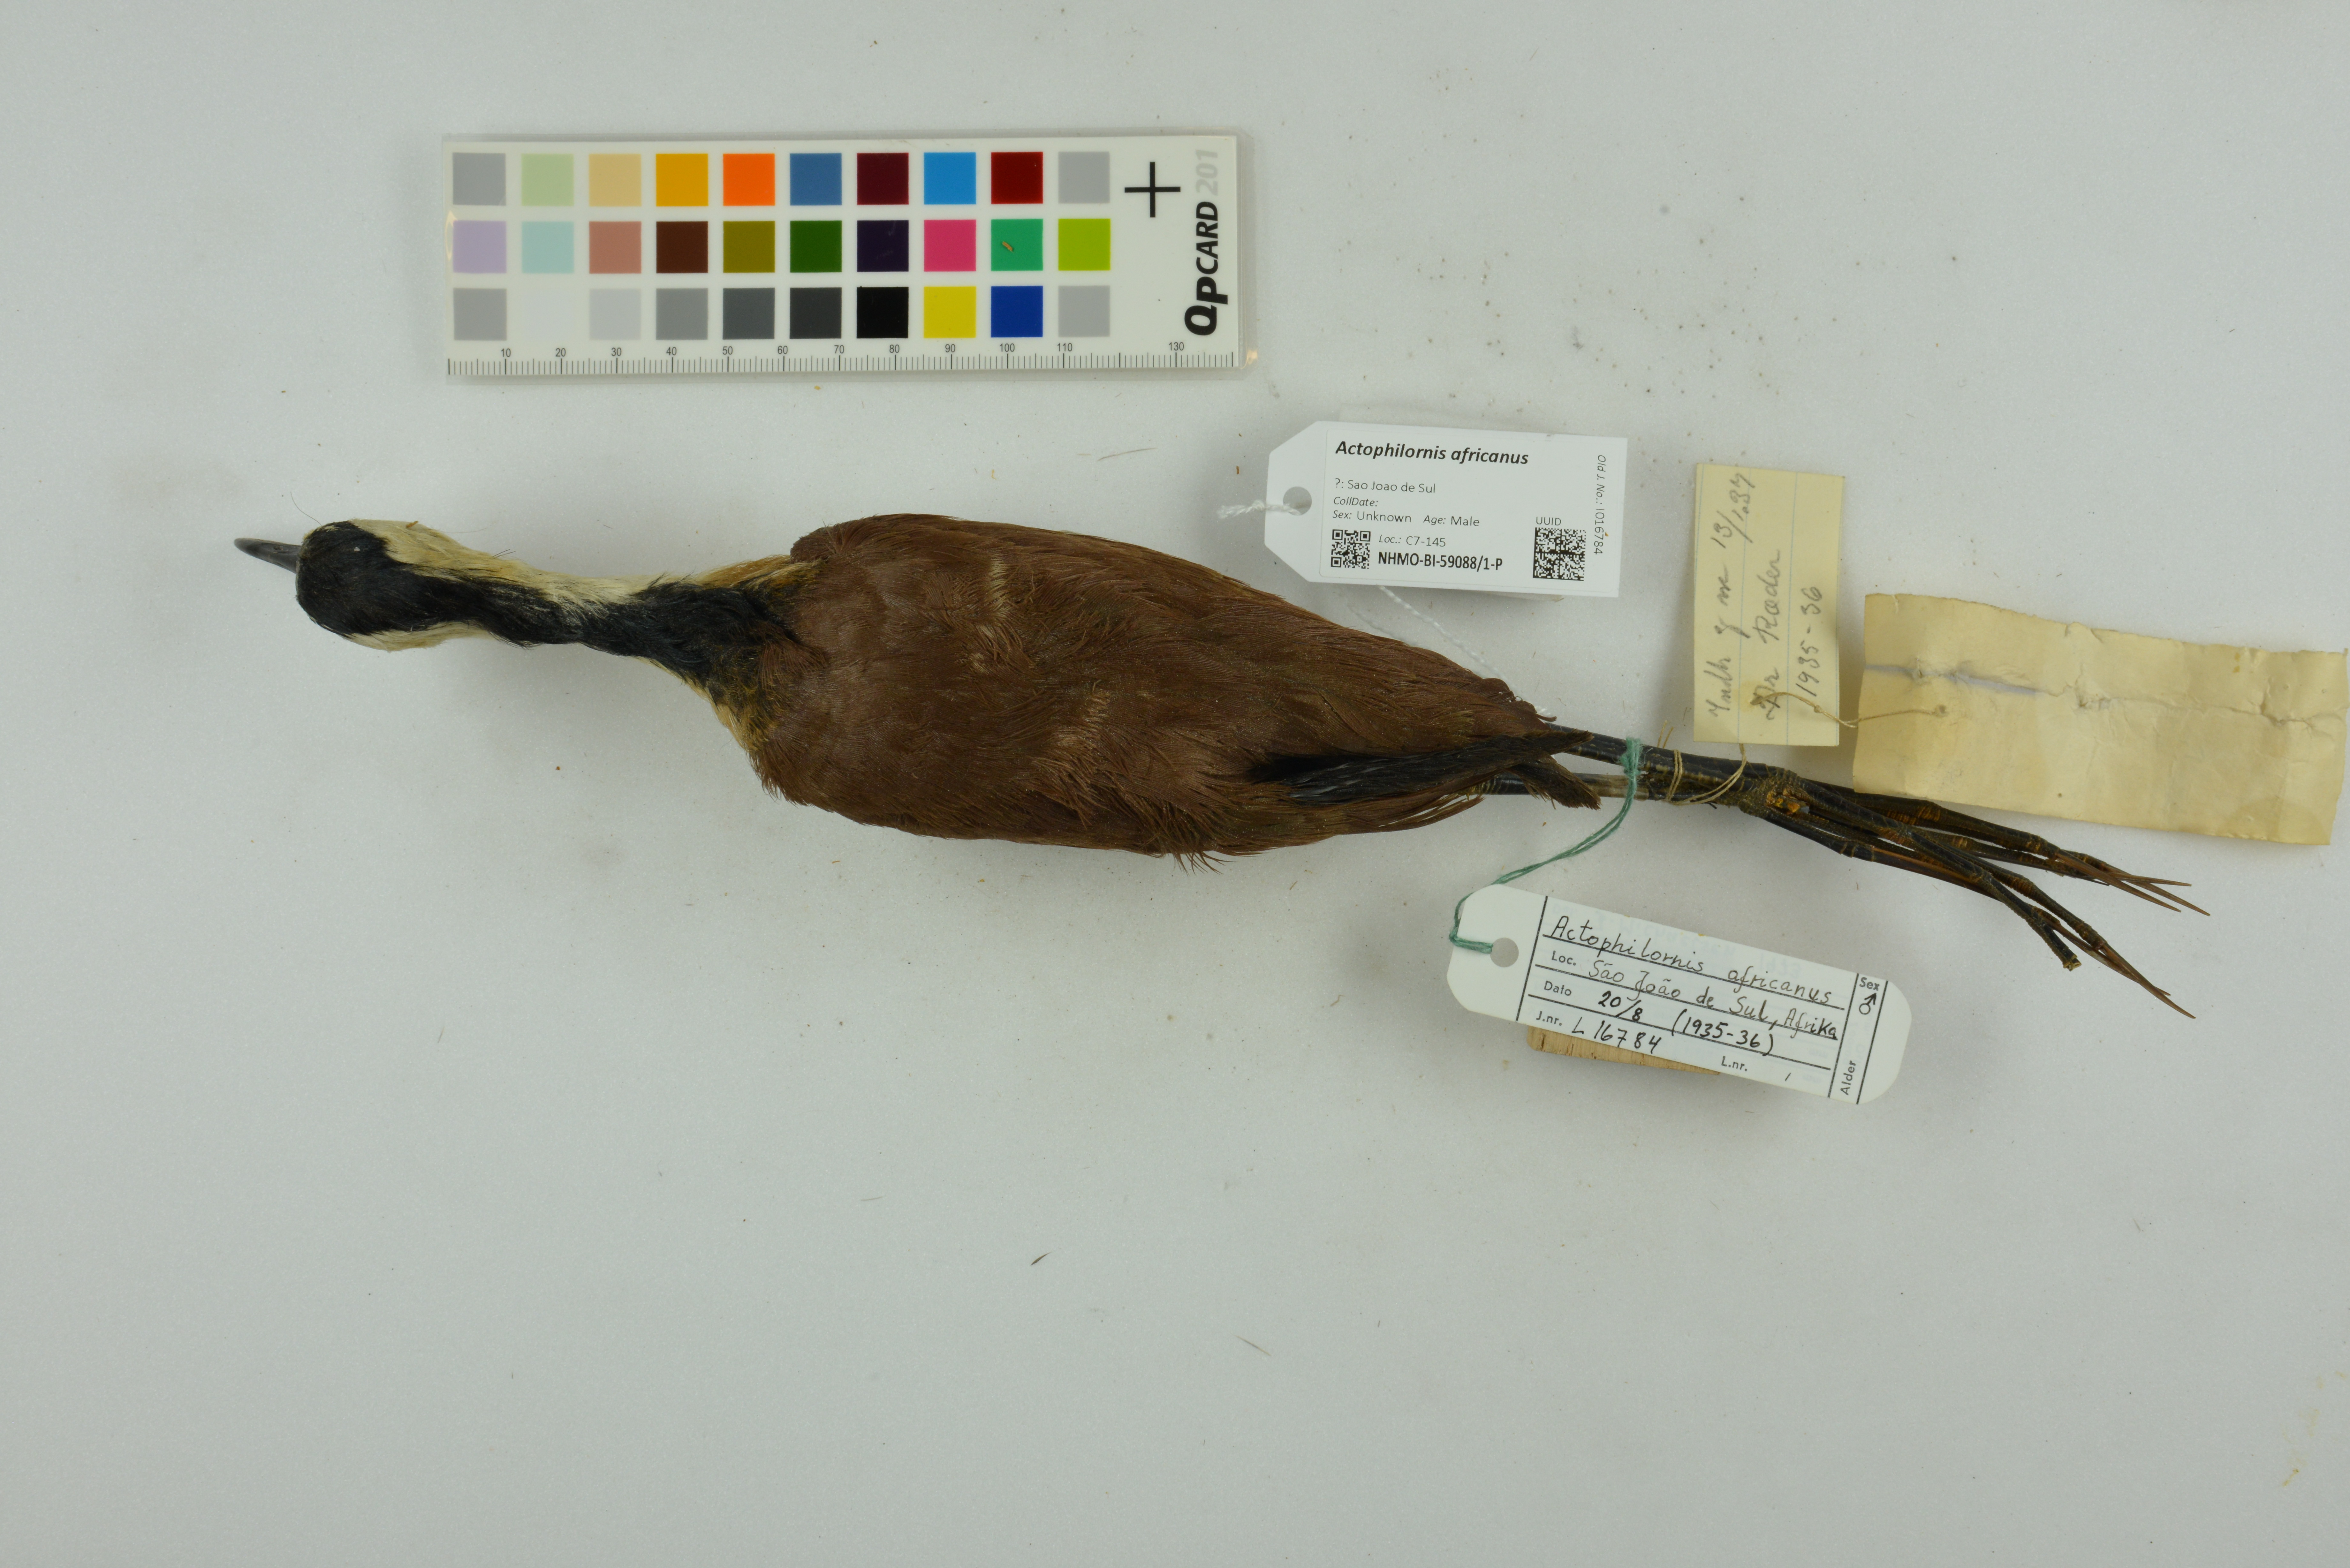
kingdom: Animalia
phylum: Chordata
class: Aves
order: Charadriiformes
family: Jacanidae
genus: Actophilornis
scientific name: Actophilornis africanus
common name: African jacana
